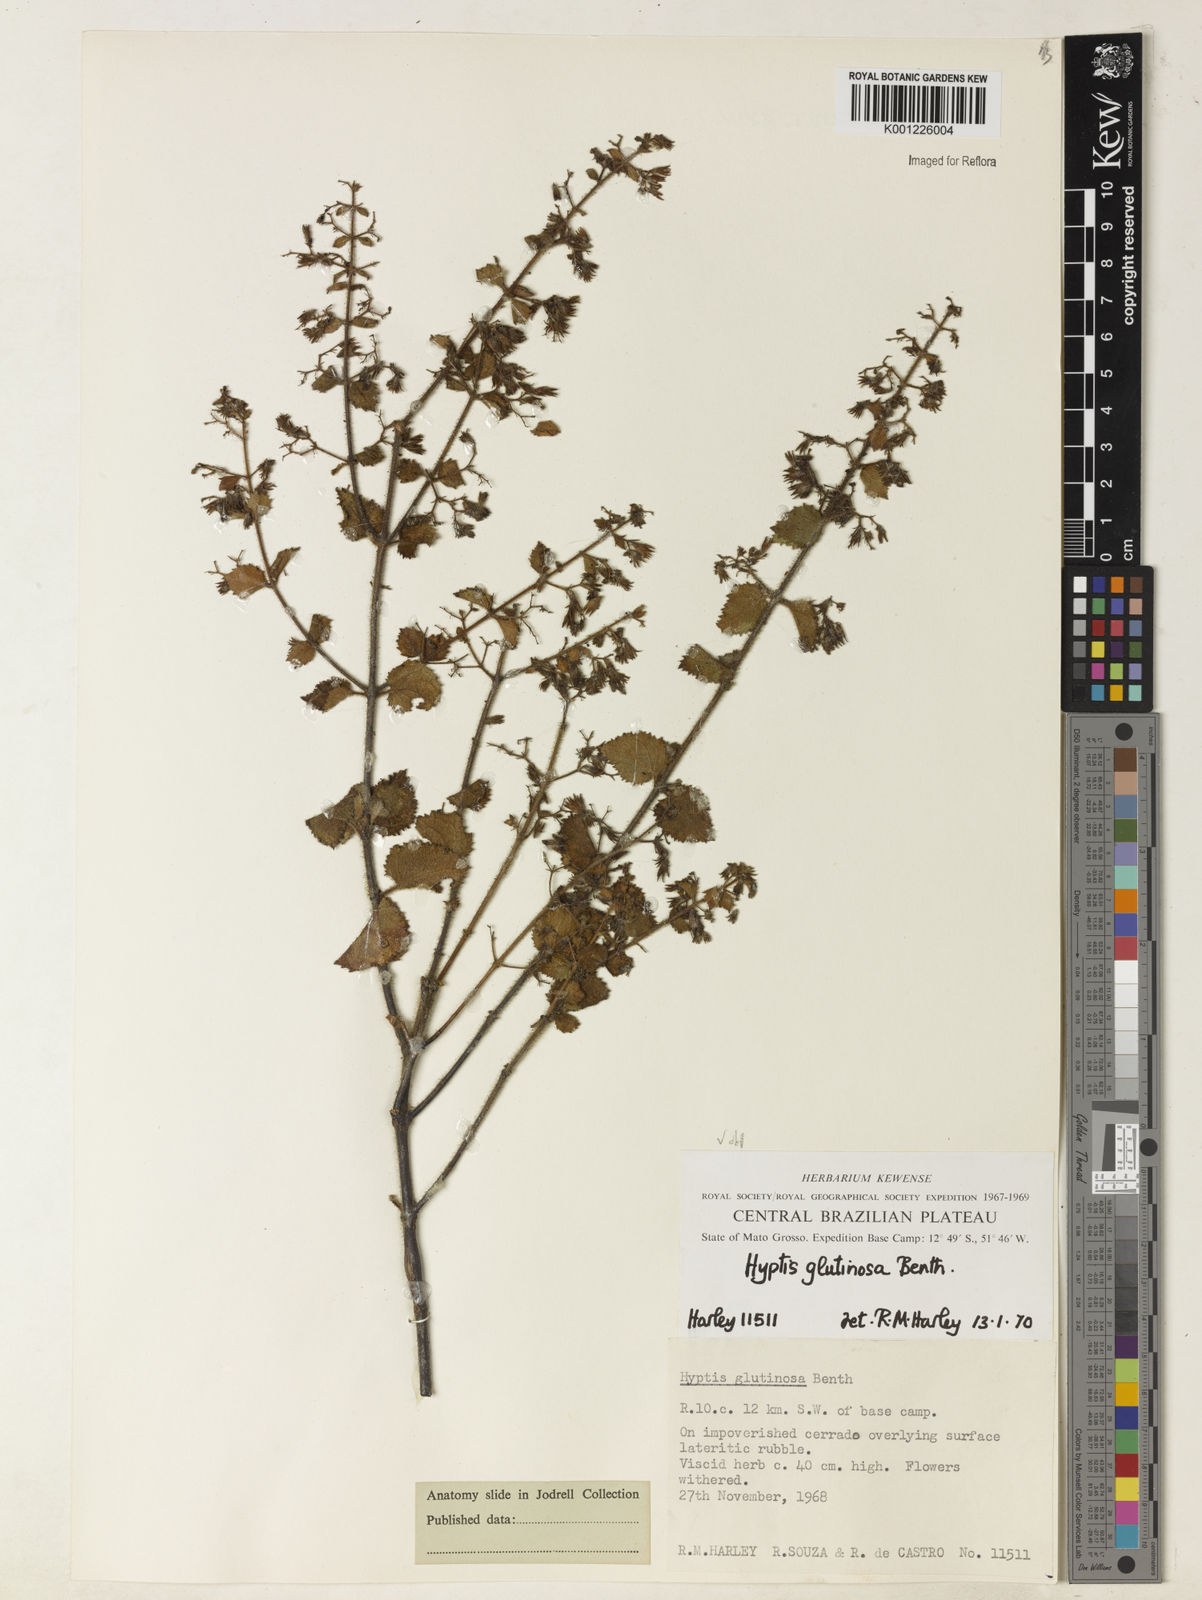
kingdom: Plantae
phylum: Tracheophyta
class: Magnoliopsida
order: Lamiales
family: Lamiaceae
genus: Hyptidendron
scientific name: Hyptidendron glutinosum
